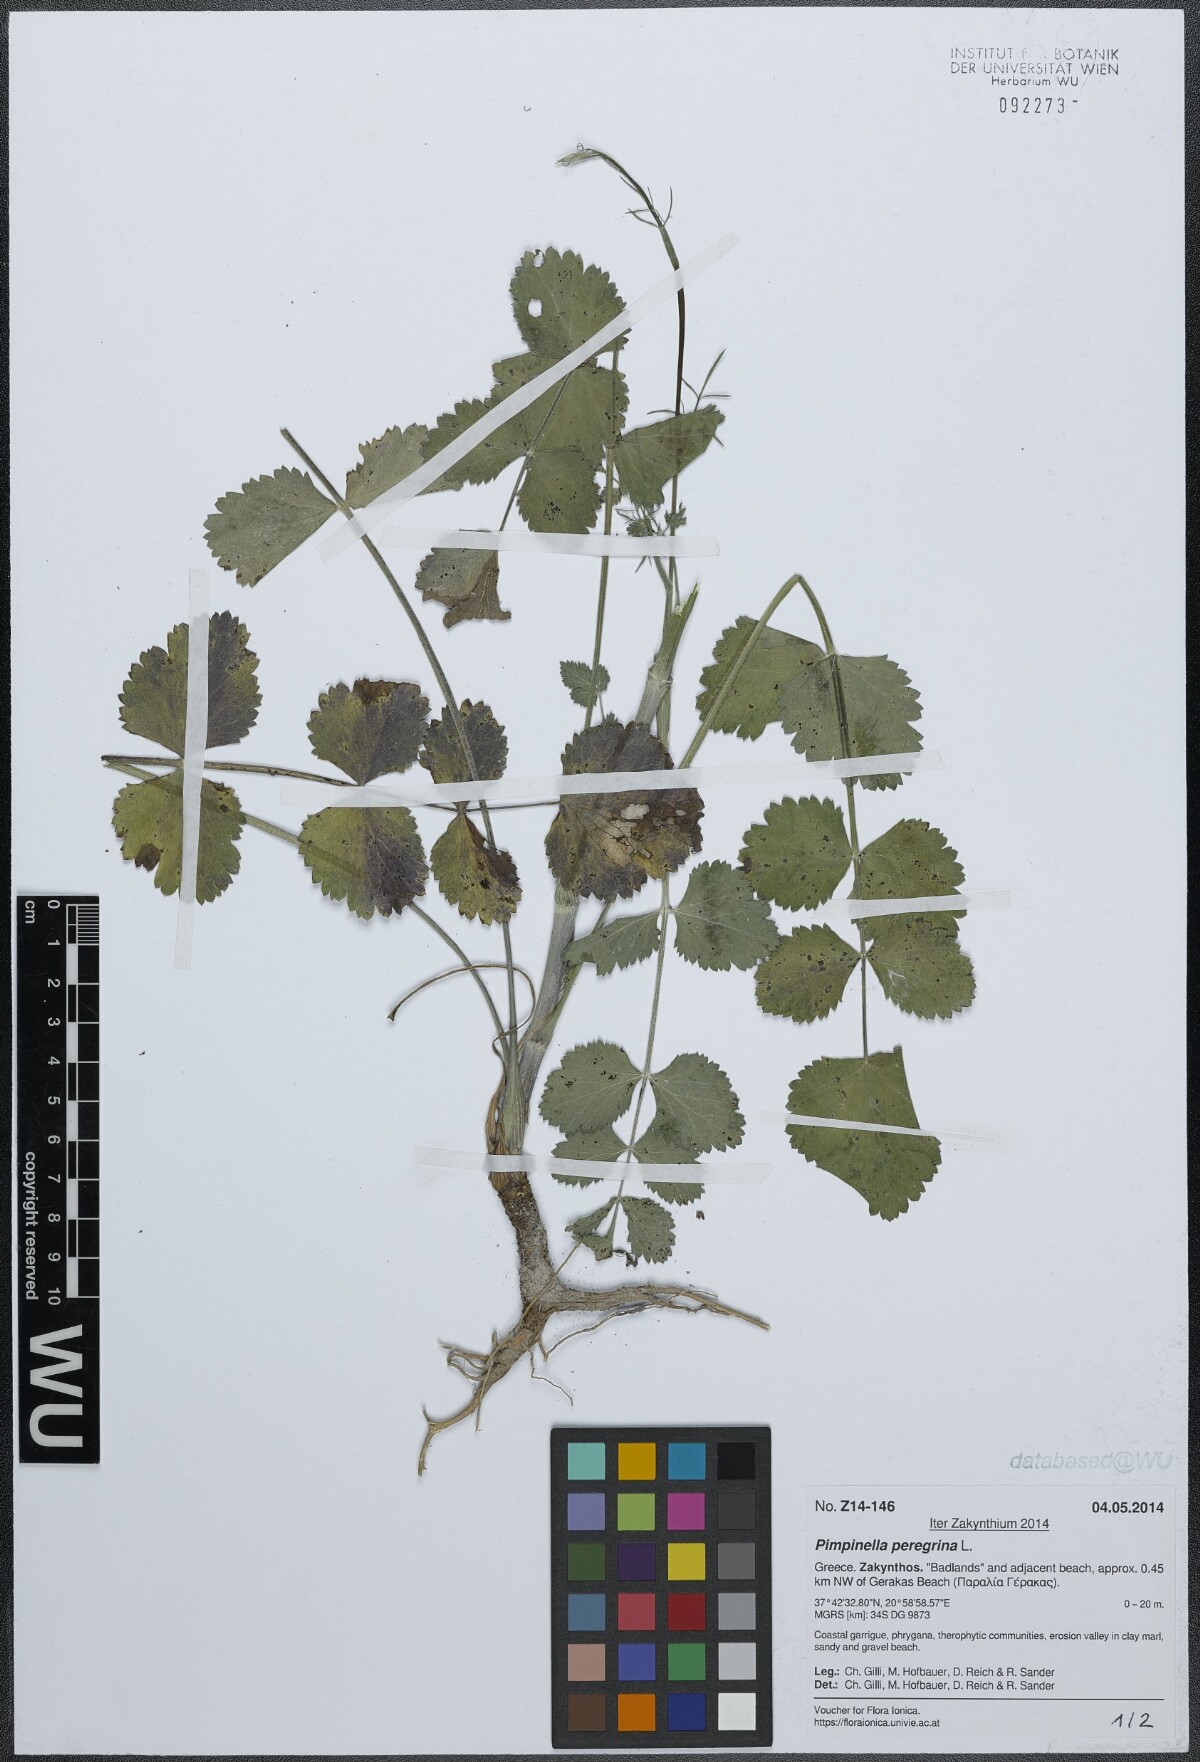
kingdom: Plantae
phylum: Tracheophyta
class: Magnoliopsida
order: Apiales
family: Apiaceae
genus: Pimpinella
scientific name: Pimpinella peregrina
